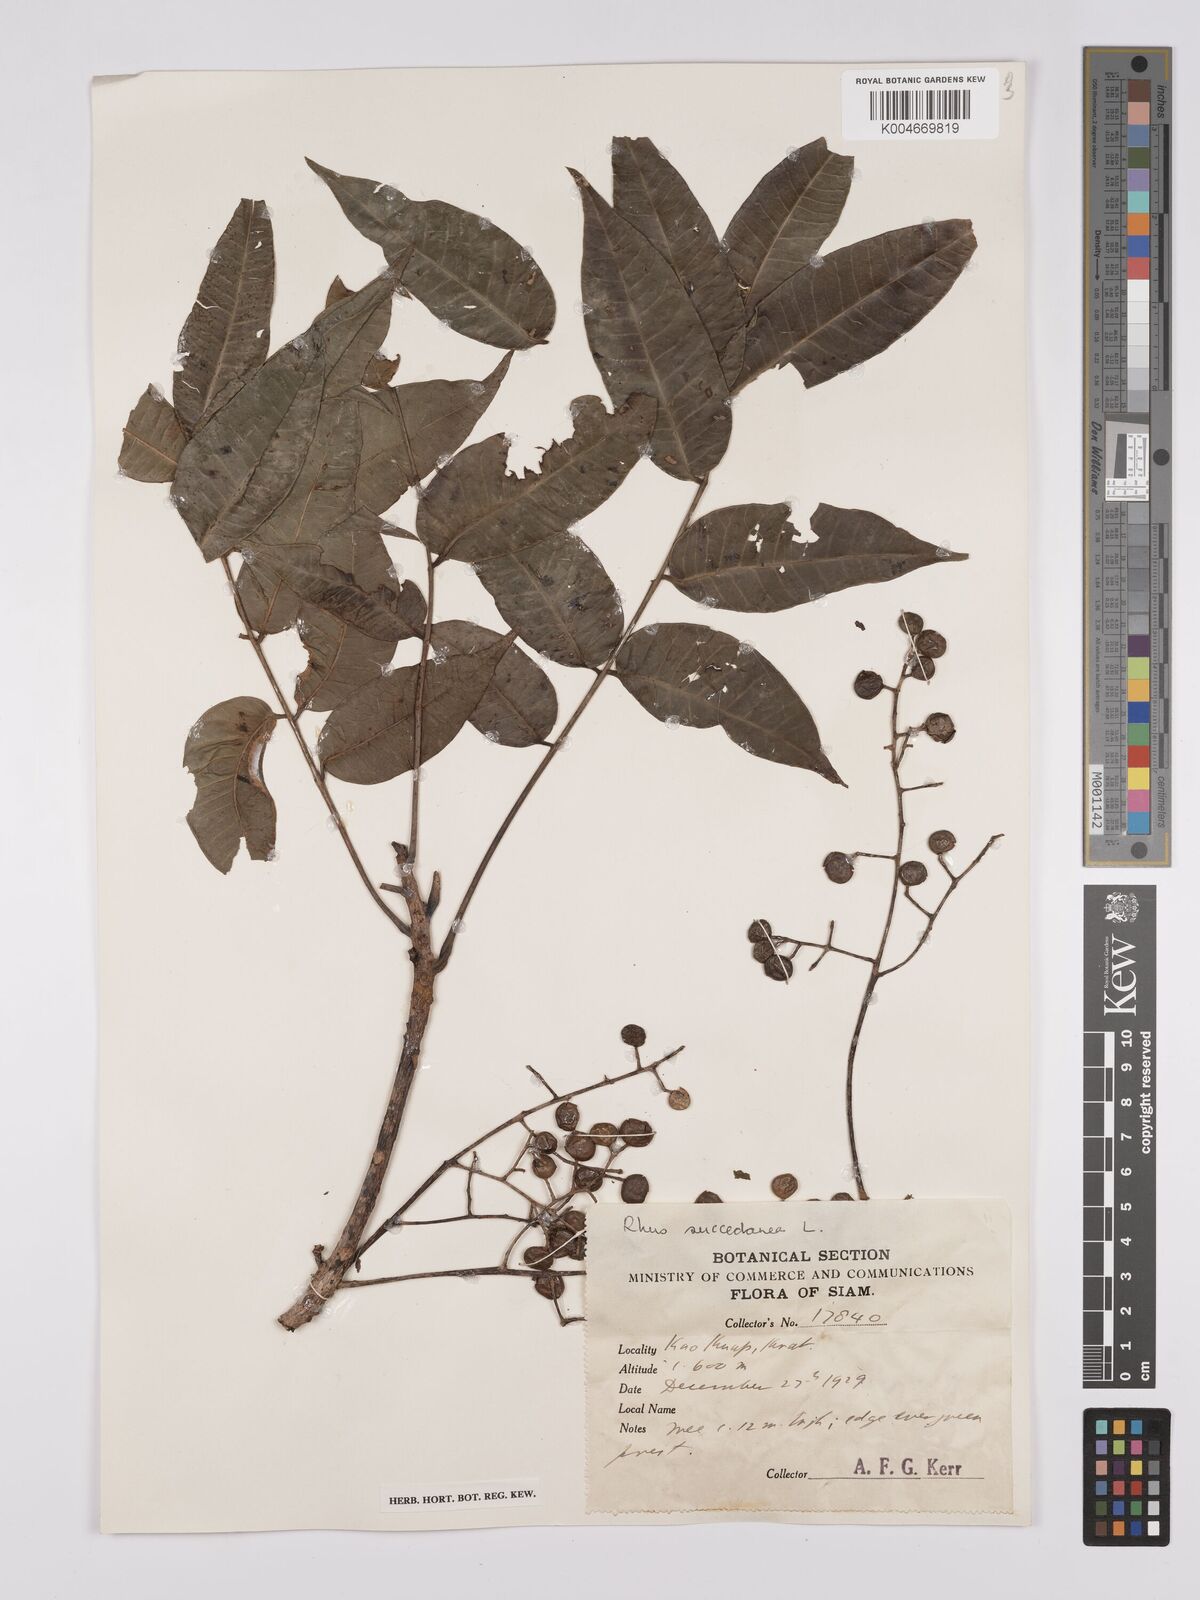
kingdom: Plantae
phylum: Tracheophyta
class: Magnoliopsida
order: Sapindales
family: Anacardiaceae
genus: Toxicodendron
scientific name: Toxicodendron succedaneum
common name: Wax tree
